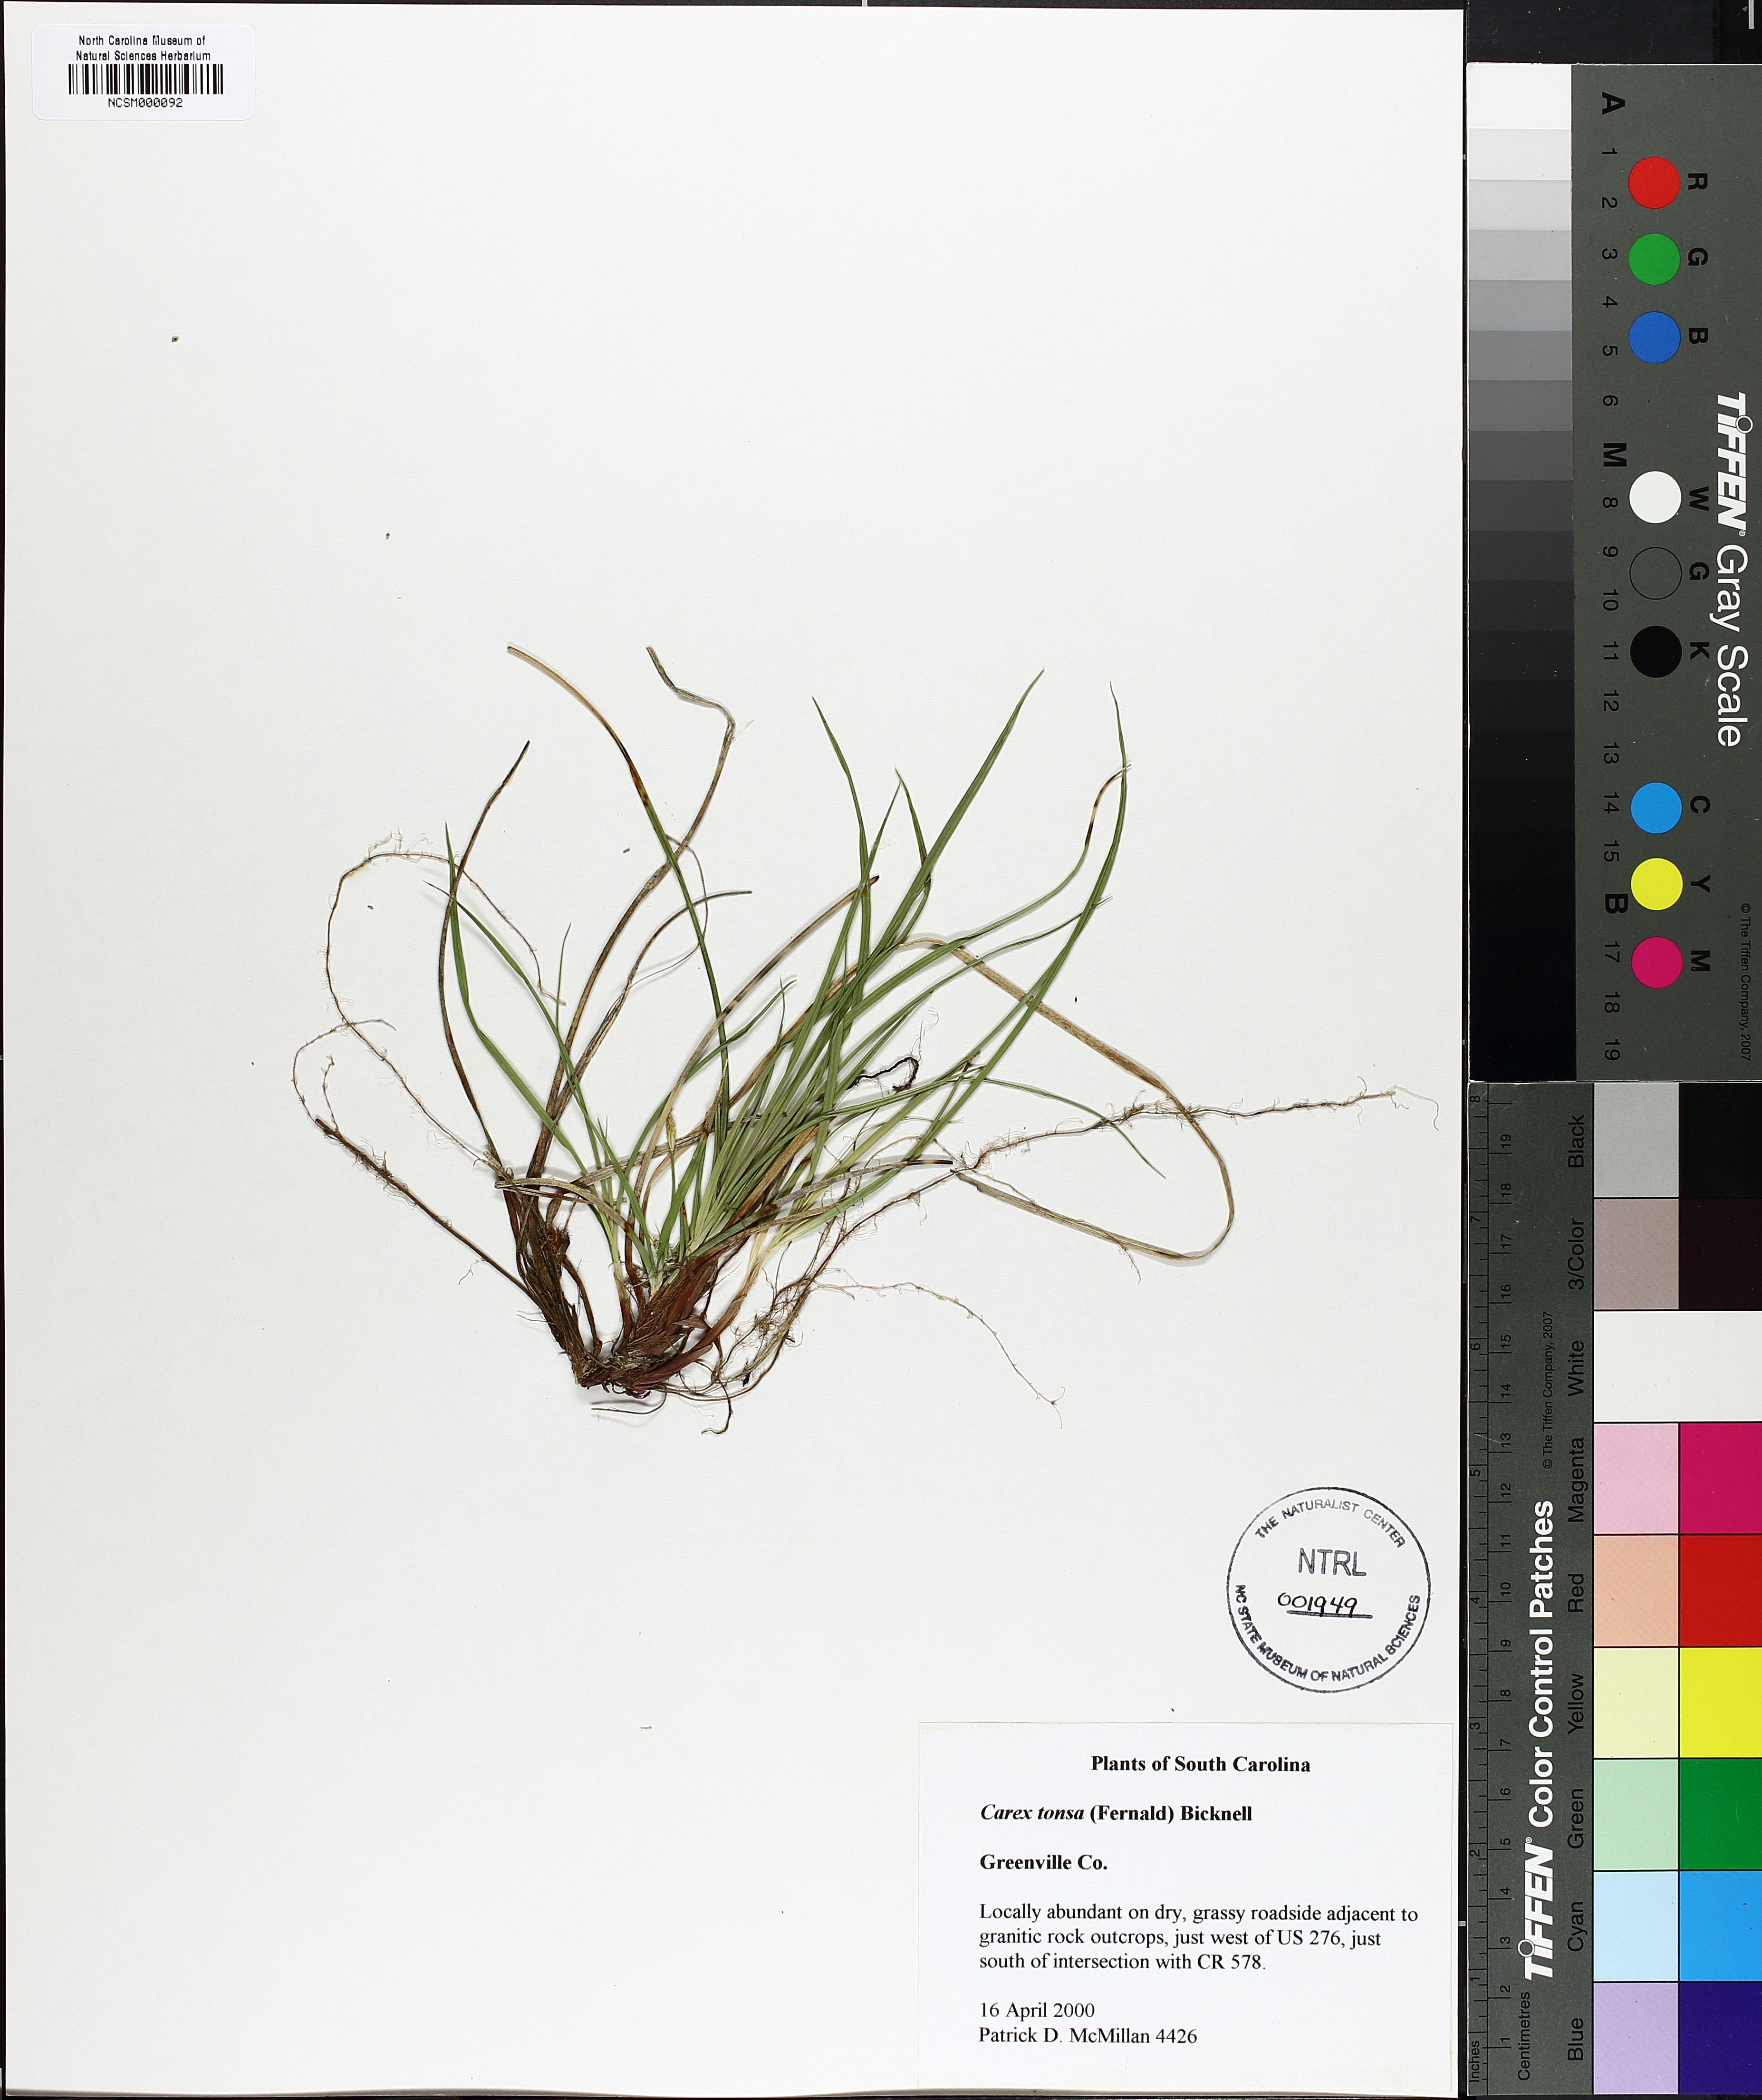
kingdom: Plantae
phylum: Tracheophyta
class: Liliopsida
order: Poales
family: Cyperaceae
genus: Carex
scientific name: Carex tonsa
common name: Bald sedge
